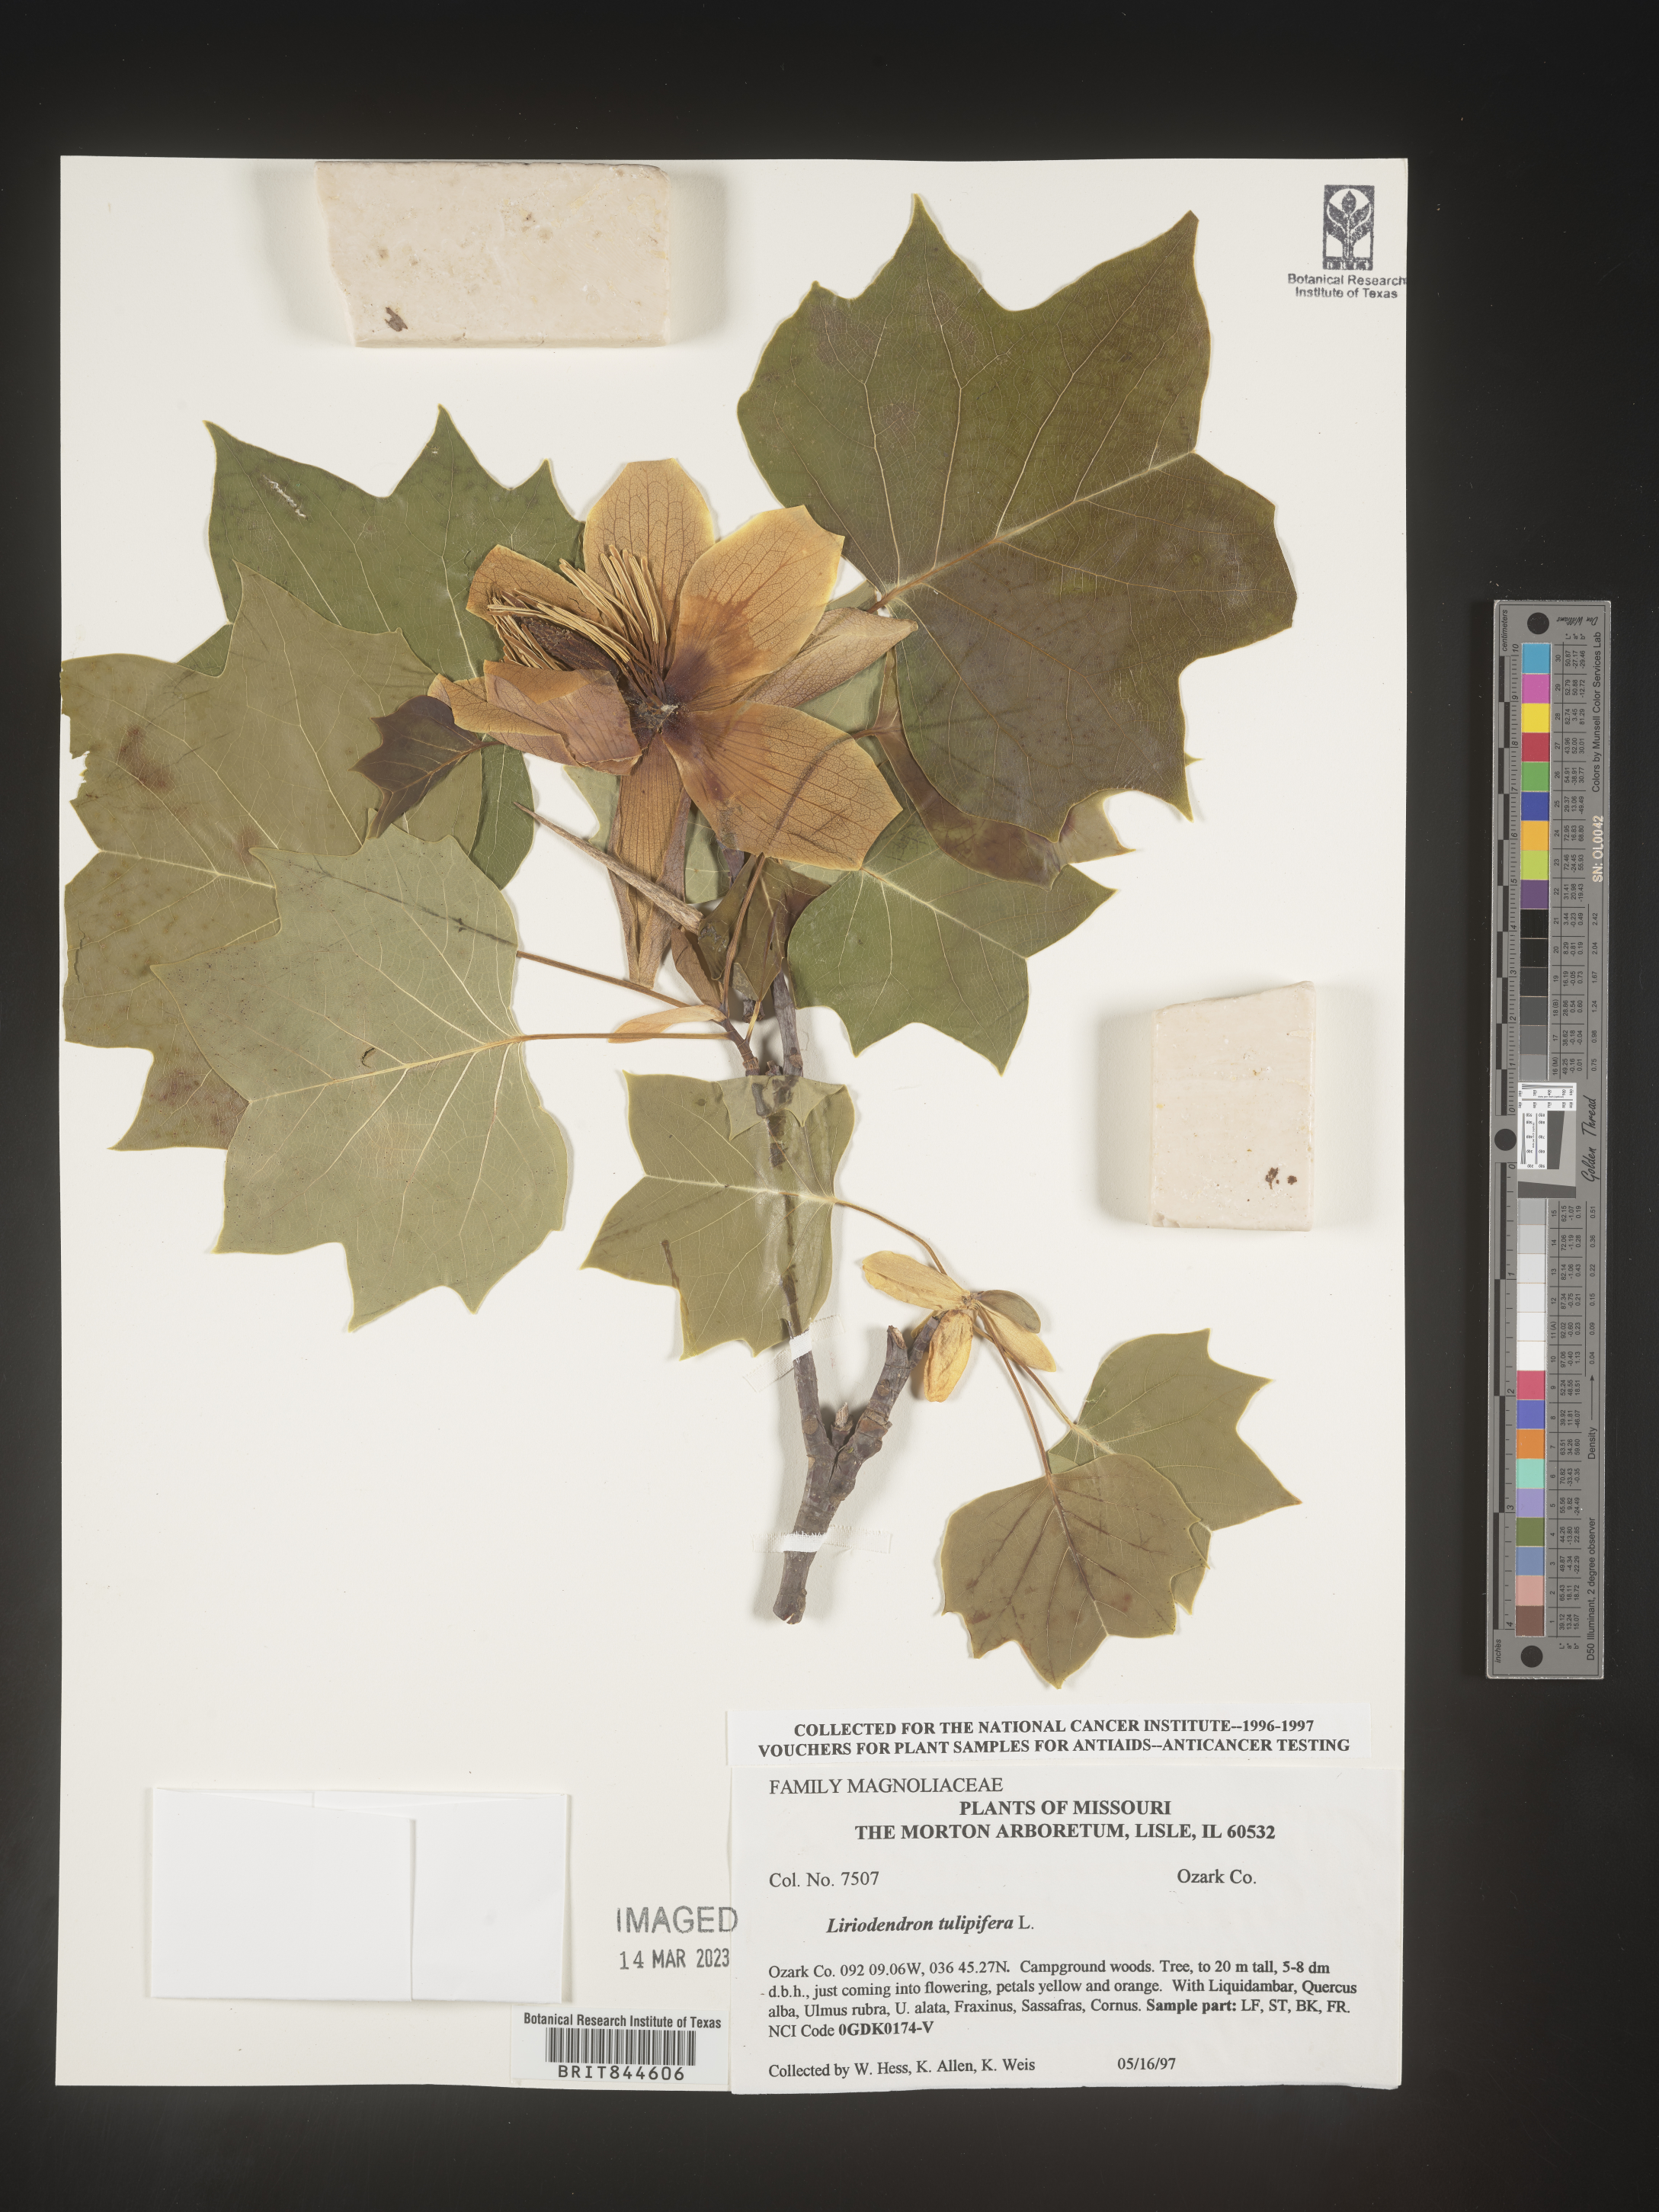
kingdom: Plantae
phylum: Tracheophyta
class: Magnoliopsida
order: Magnoliales
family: Magnoliaceae
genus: Liriodendron
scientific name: Liriodendron tulipifera
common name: Tulip tree
